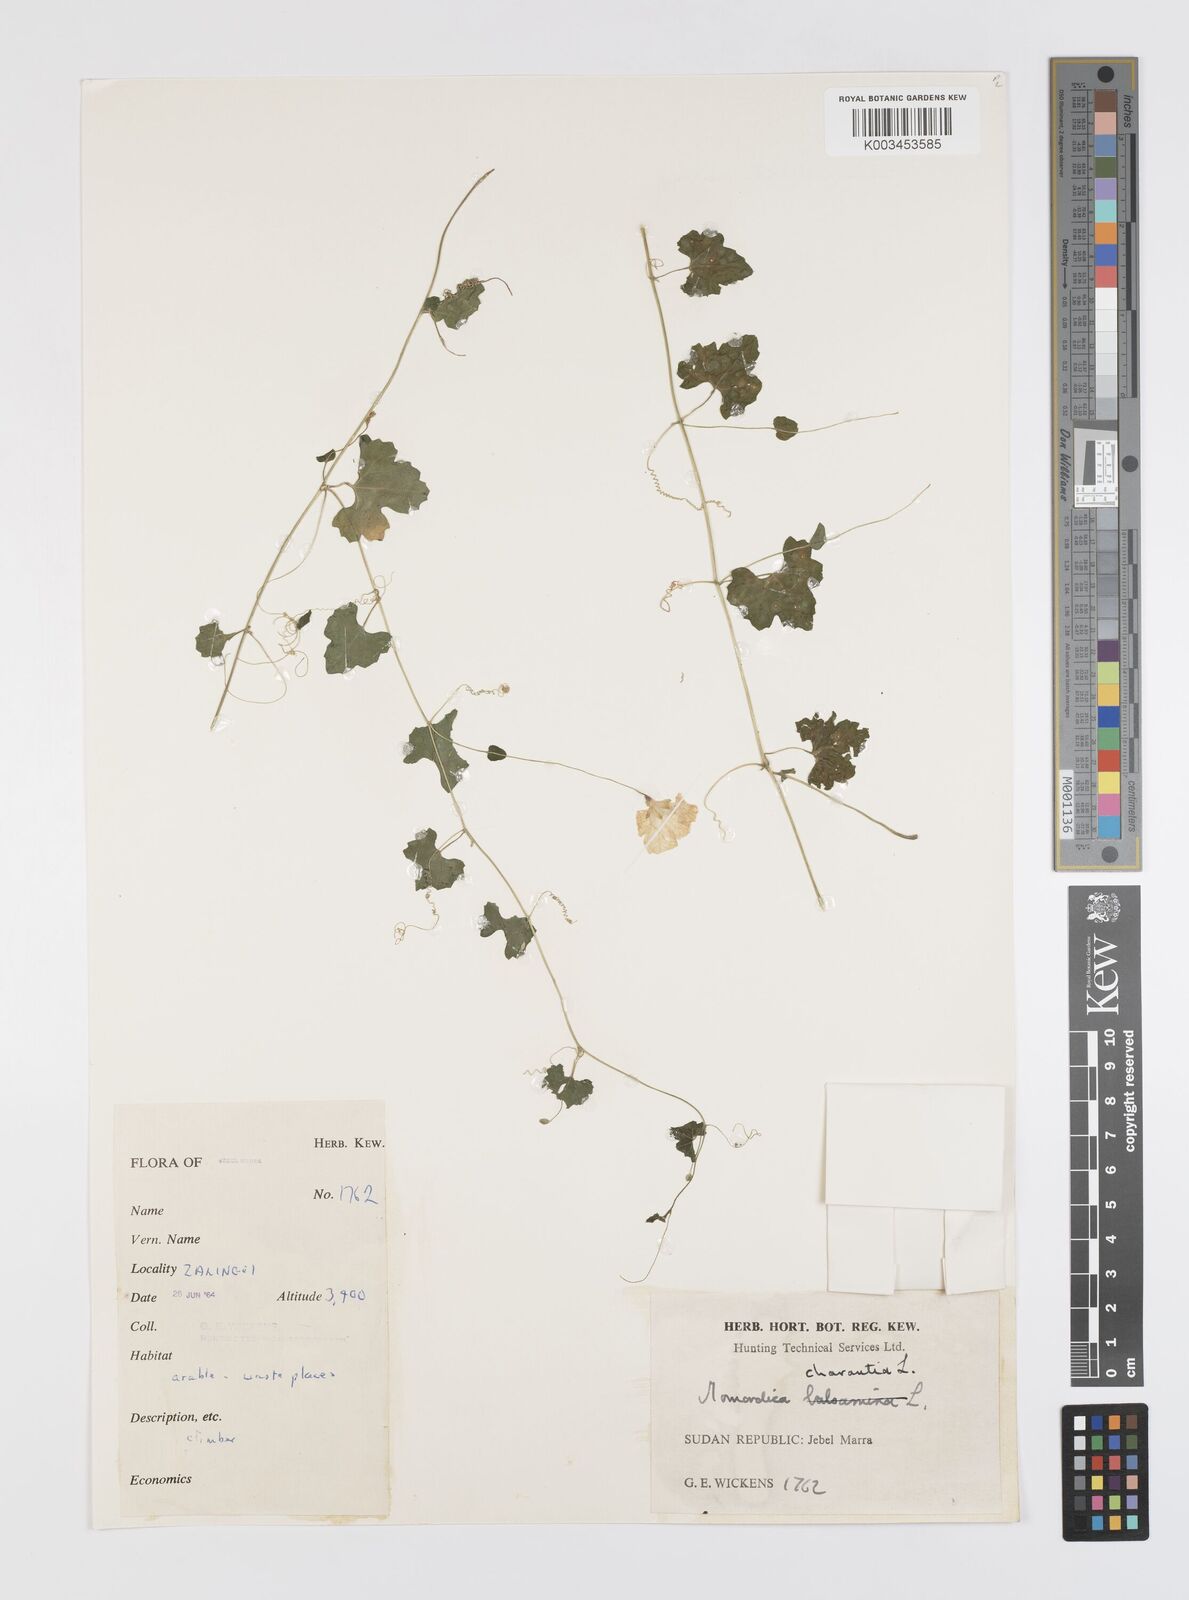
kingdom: Plantae
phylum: Tracheophyta
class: Magnoliopsida
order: Cucurbitales
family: Cucurbitaceae
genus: Momordica
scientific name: Momordica charantia
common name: Balsampear
